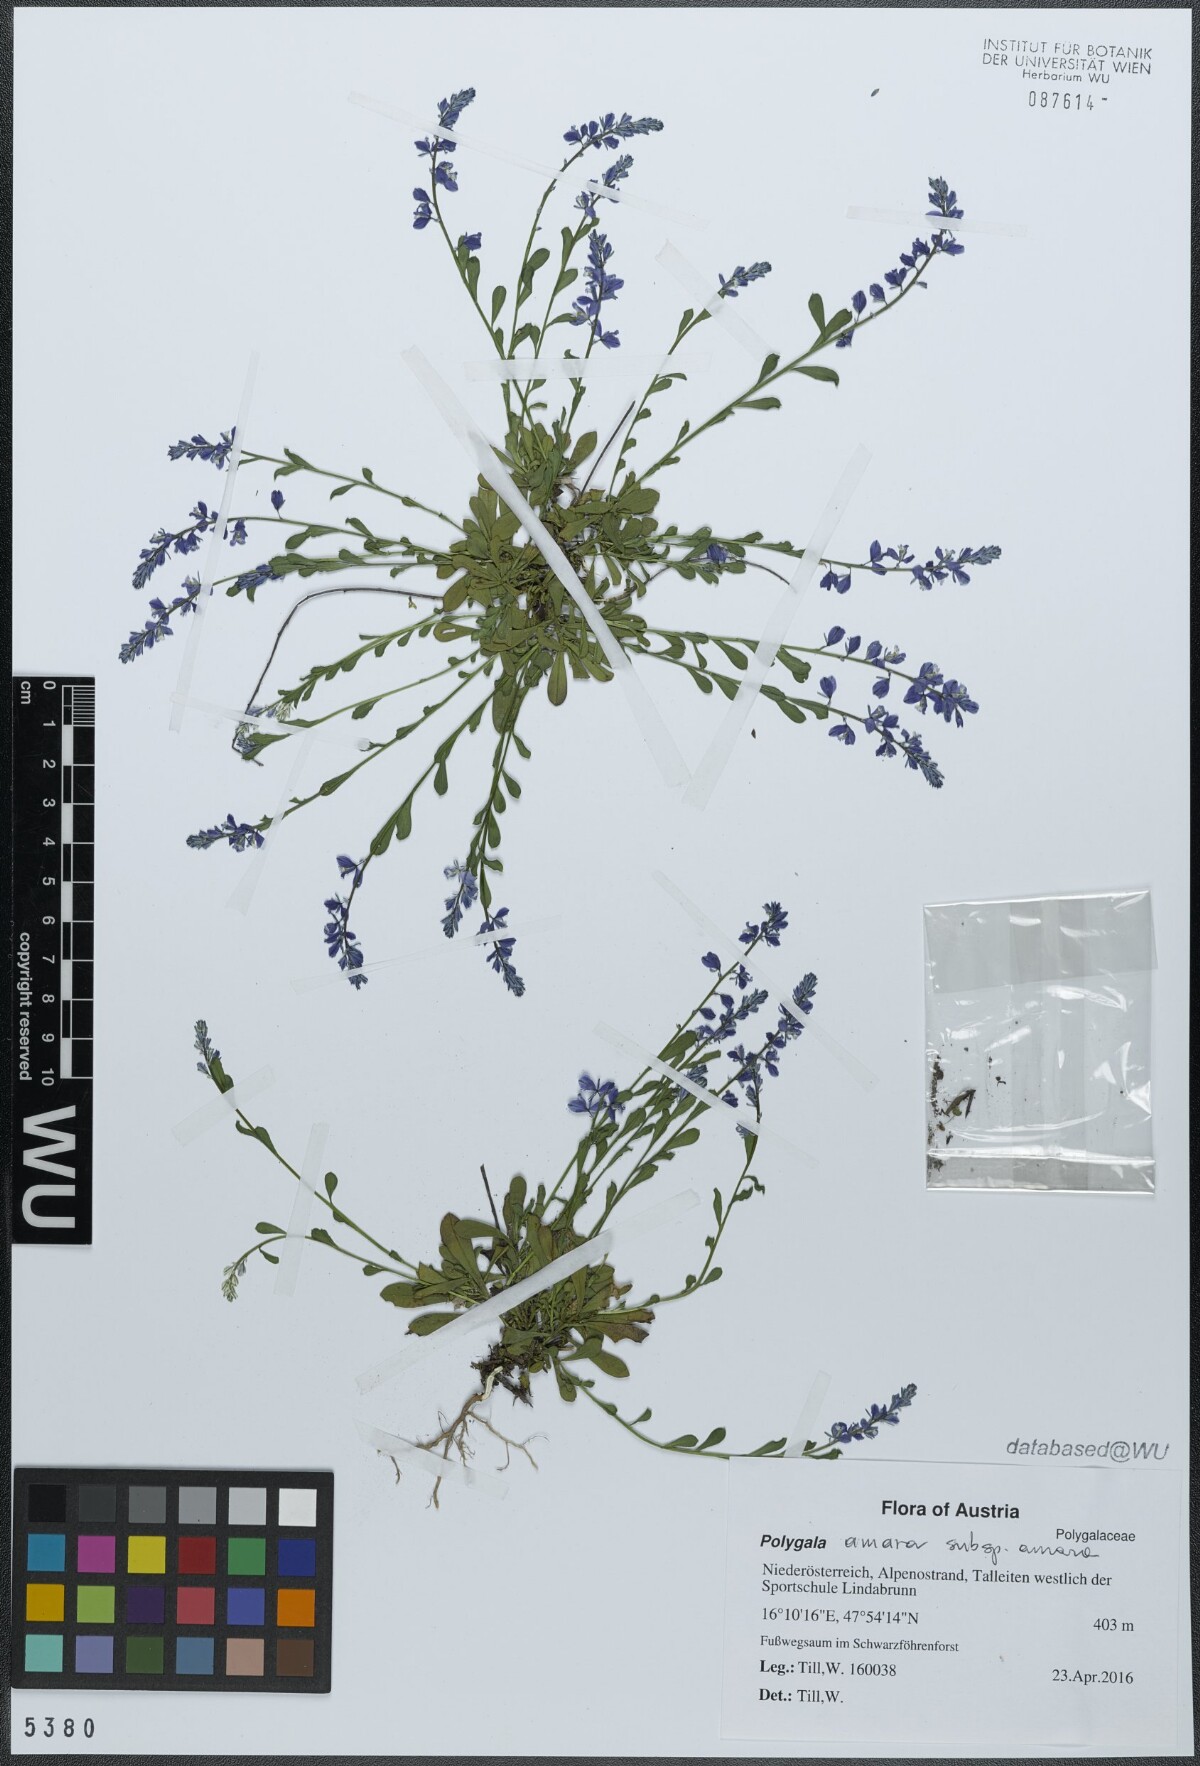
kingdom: Plantae
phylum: Tracheophyta
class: Magnoliopsida
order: Fabales
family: Polygalaceae
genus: Polygala
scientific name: Polygala amara
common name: Milkwort
